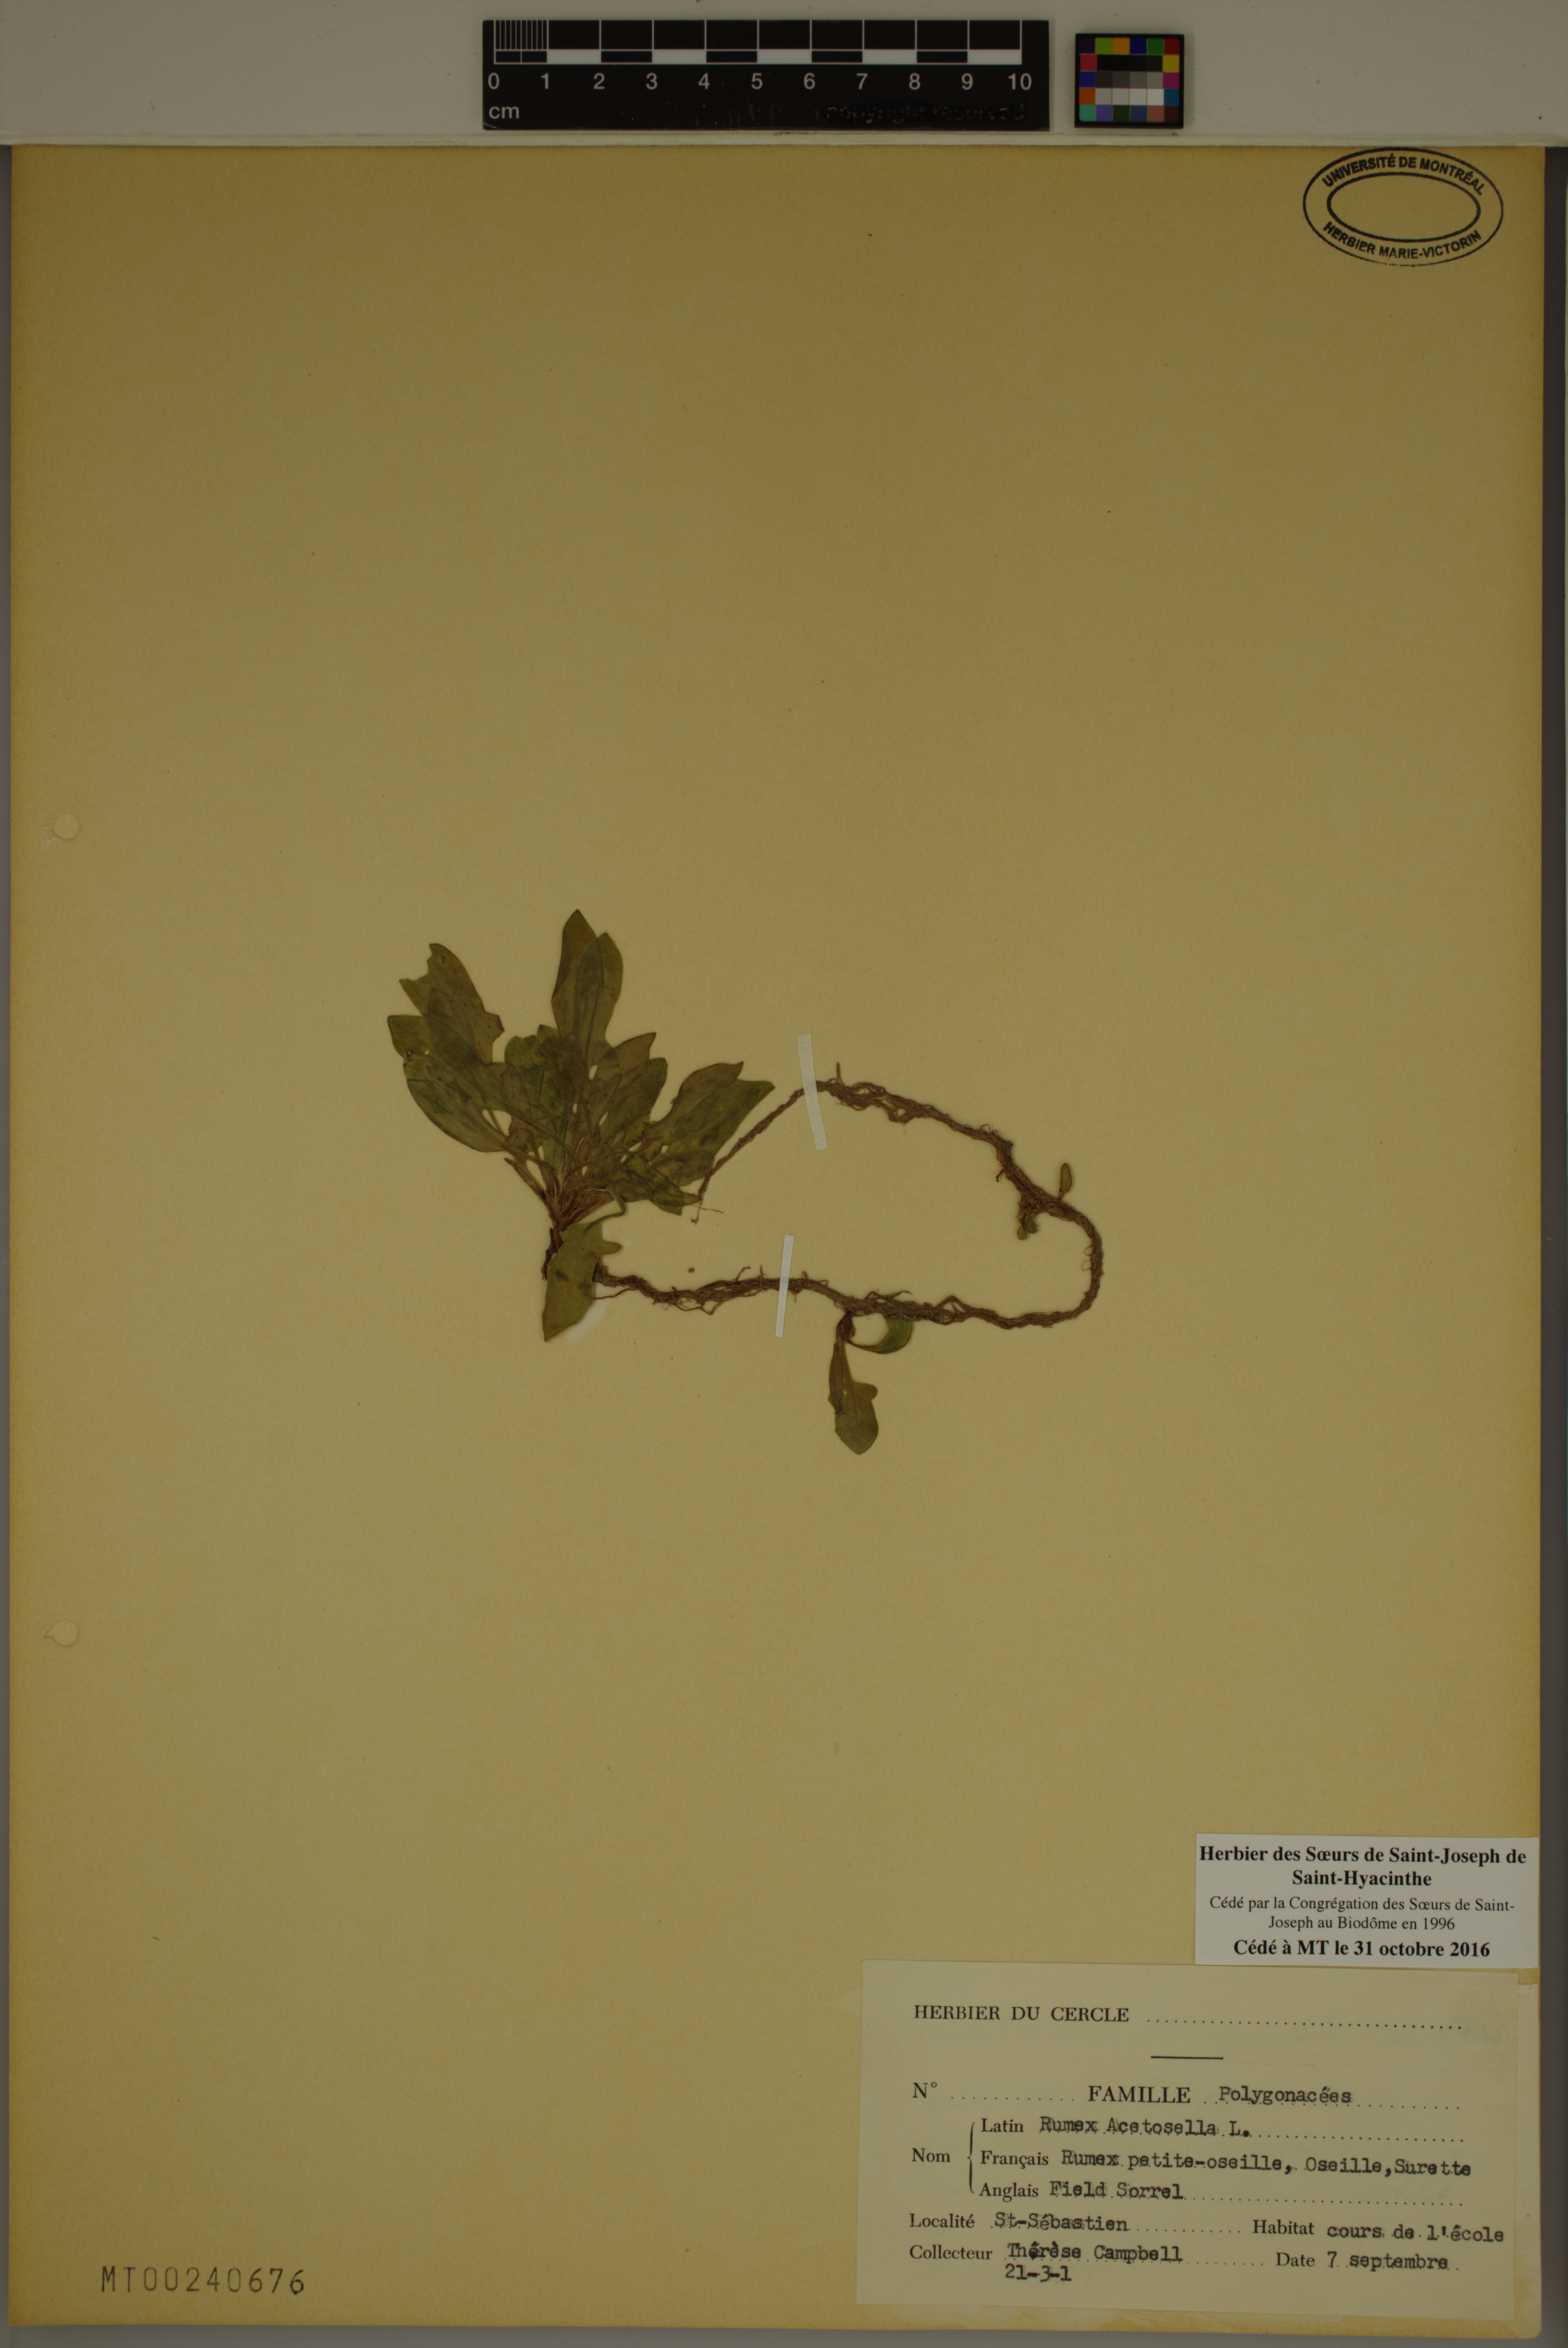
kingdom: Plantae
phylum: Tracheophyta
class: Magnoliopsida
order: Caryophyllales
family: Polygonaceae
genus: Rumex
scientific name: Rumex acetosella
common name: Common sheep sorrel
